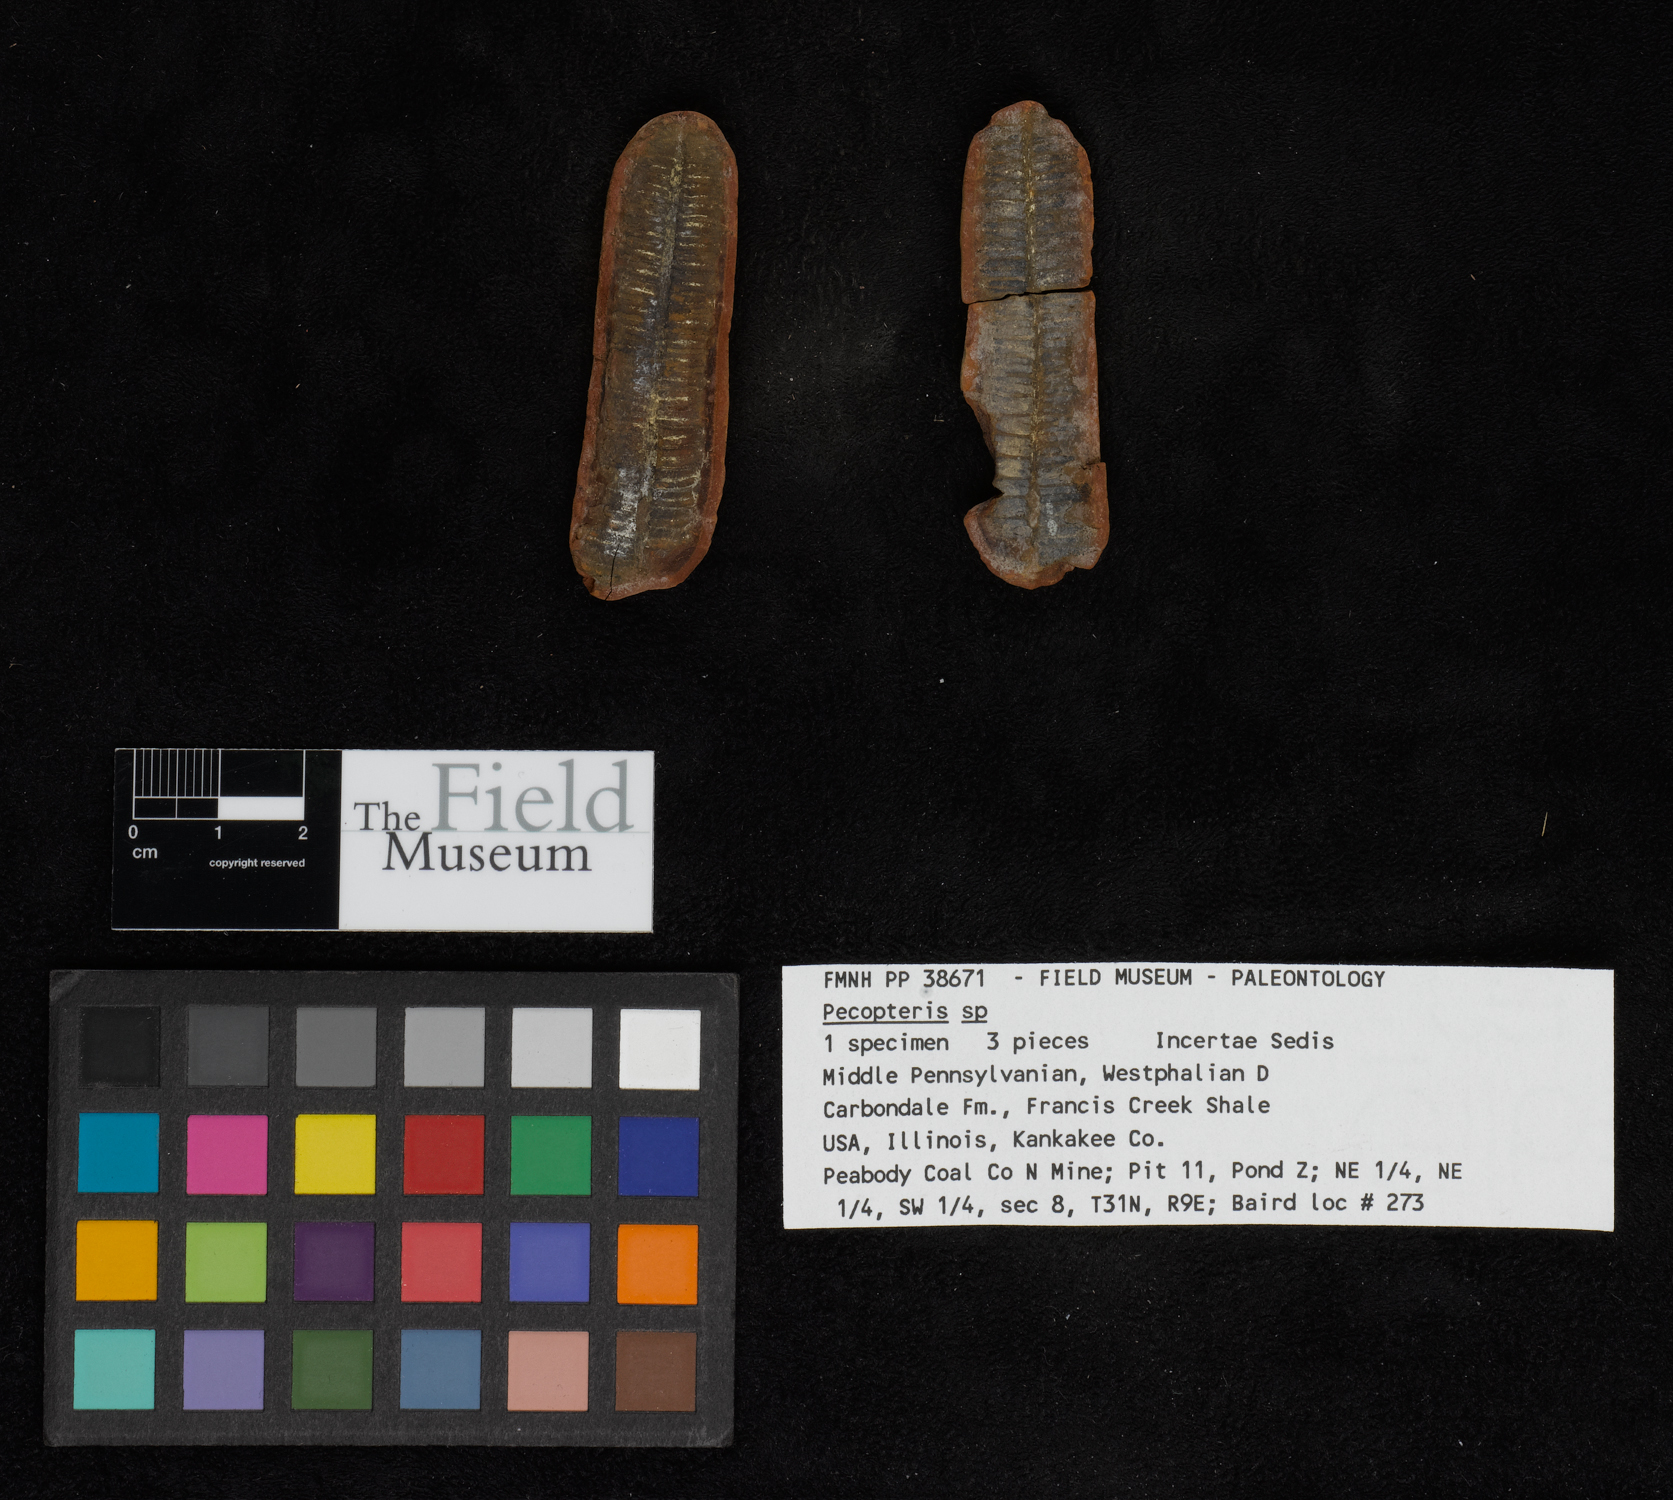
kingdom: Plantae
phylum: Tracheophyta
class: Polypodiopsida
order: Marattiales
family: Asterothecaceae
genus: Pecopteris
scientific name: Pecopteris
